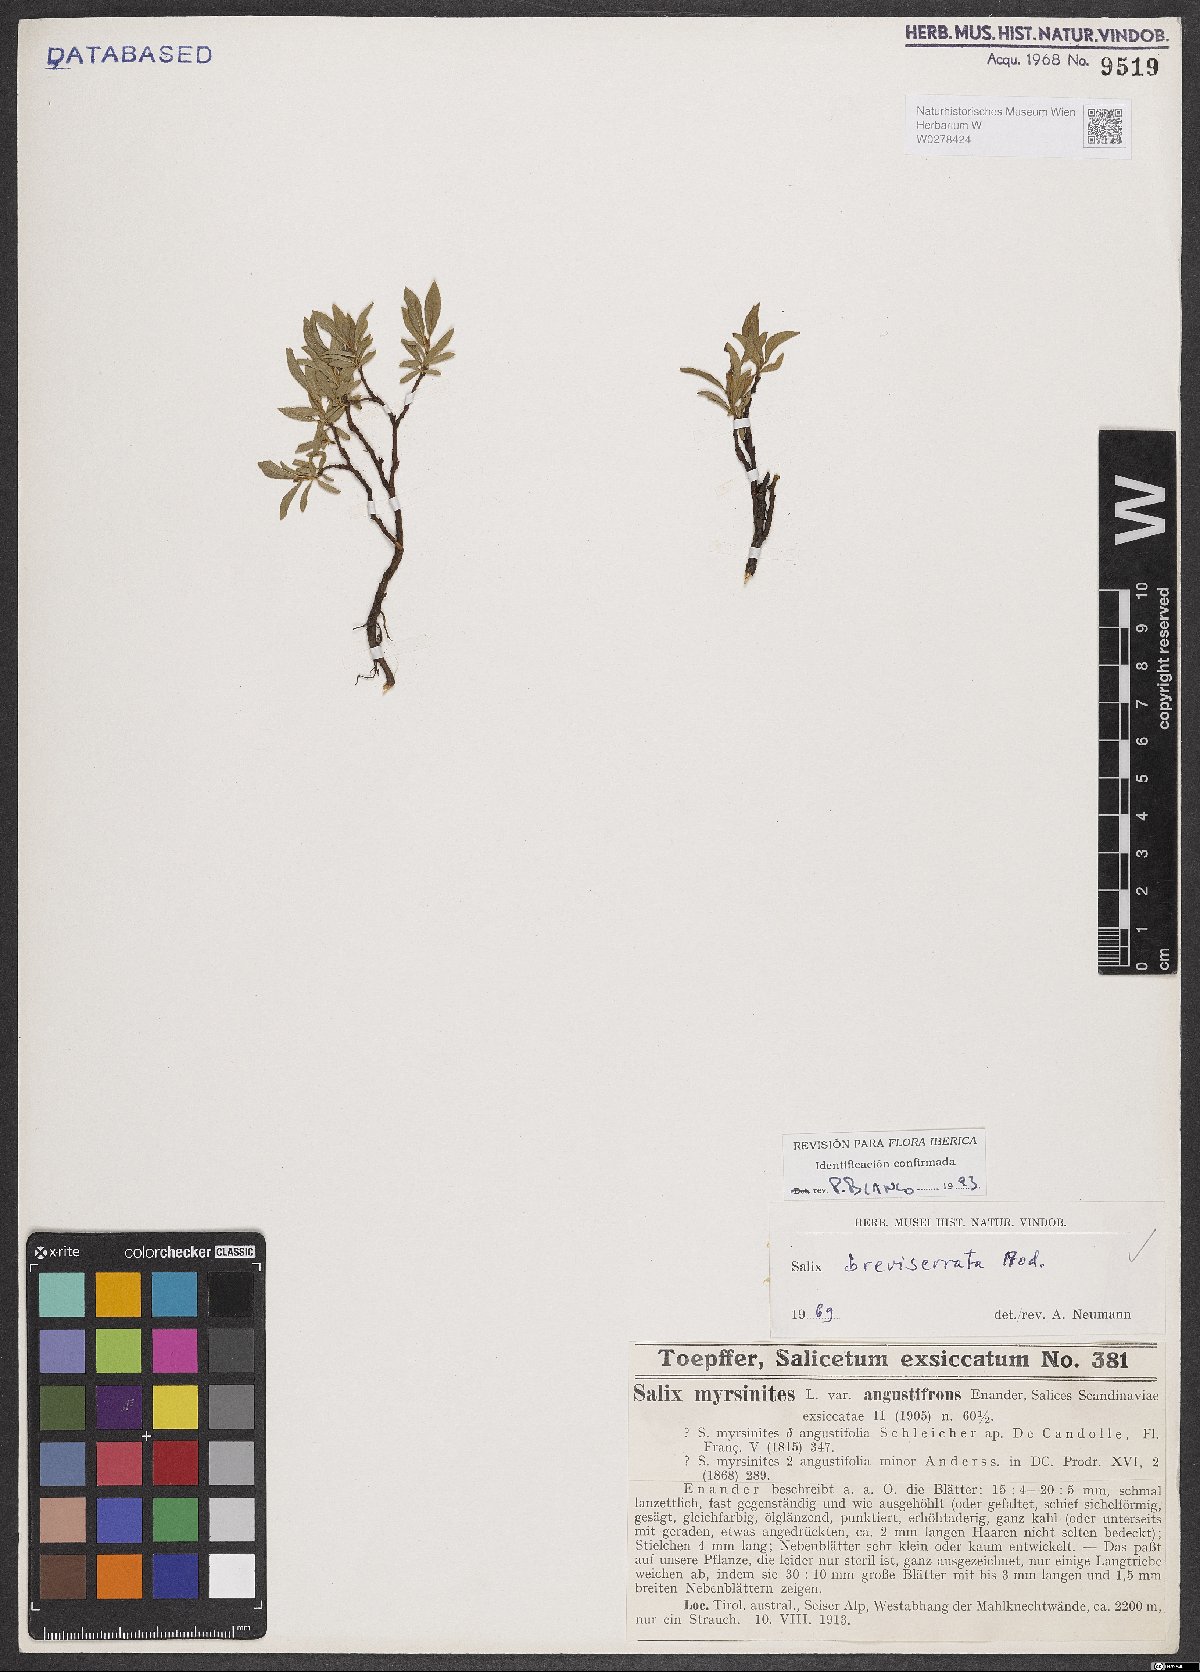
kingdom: Plantae
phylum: Tracheophyta
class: Magnoliopsida
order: Malpighiales
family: Salicaceae
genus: Salix
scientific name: Salix breviserrata
